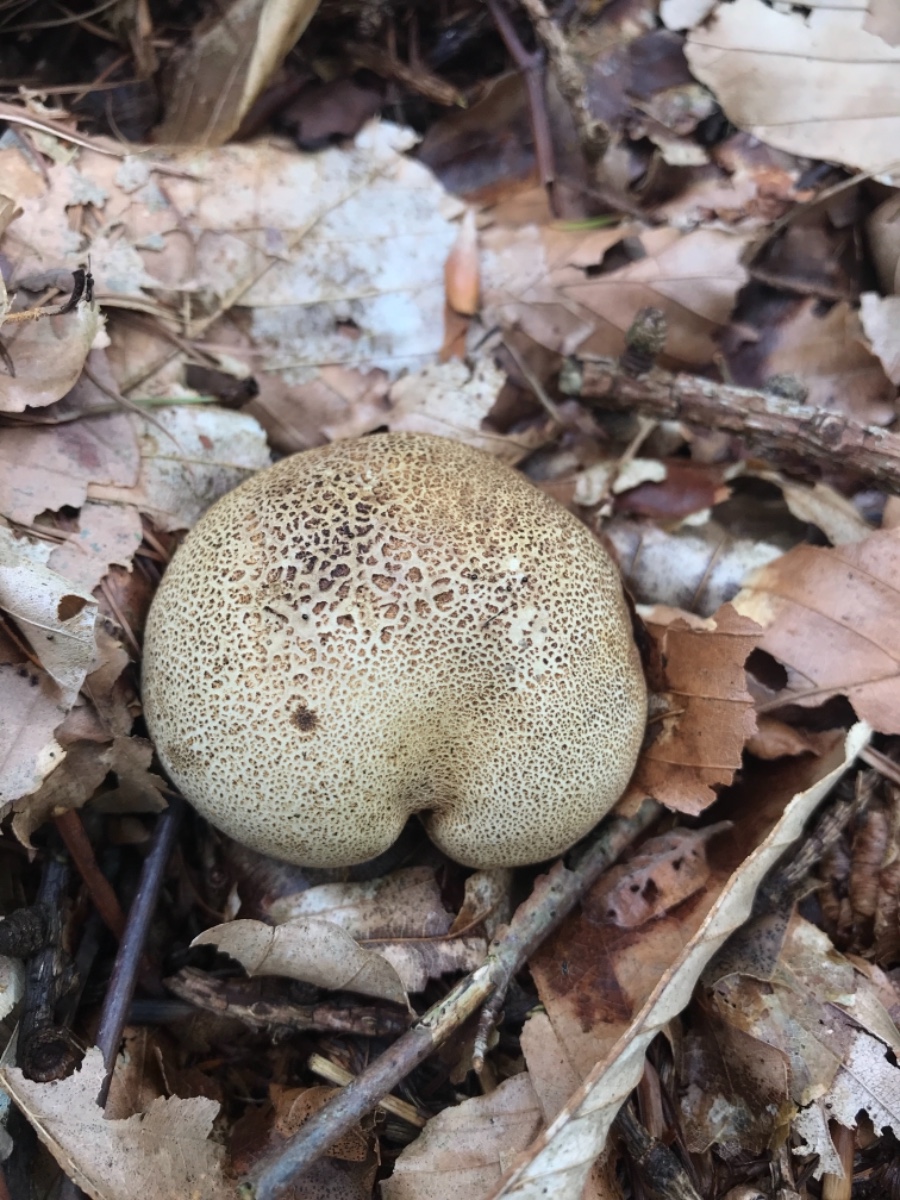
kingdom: Fungi
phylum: Basidiomycota
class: Agaricomycetes
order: Boletales
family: Sclerodermataceae
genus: Scleroderma
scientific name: Scleroderma citrinum
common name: almindelig bruskbold
